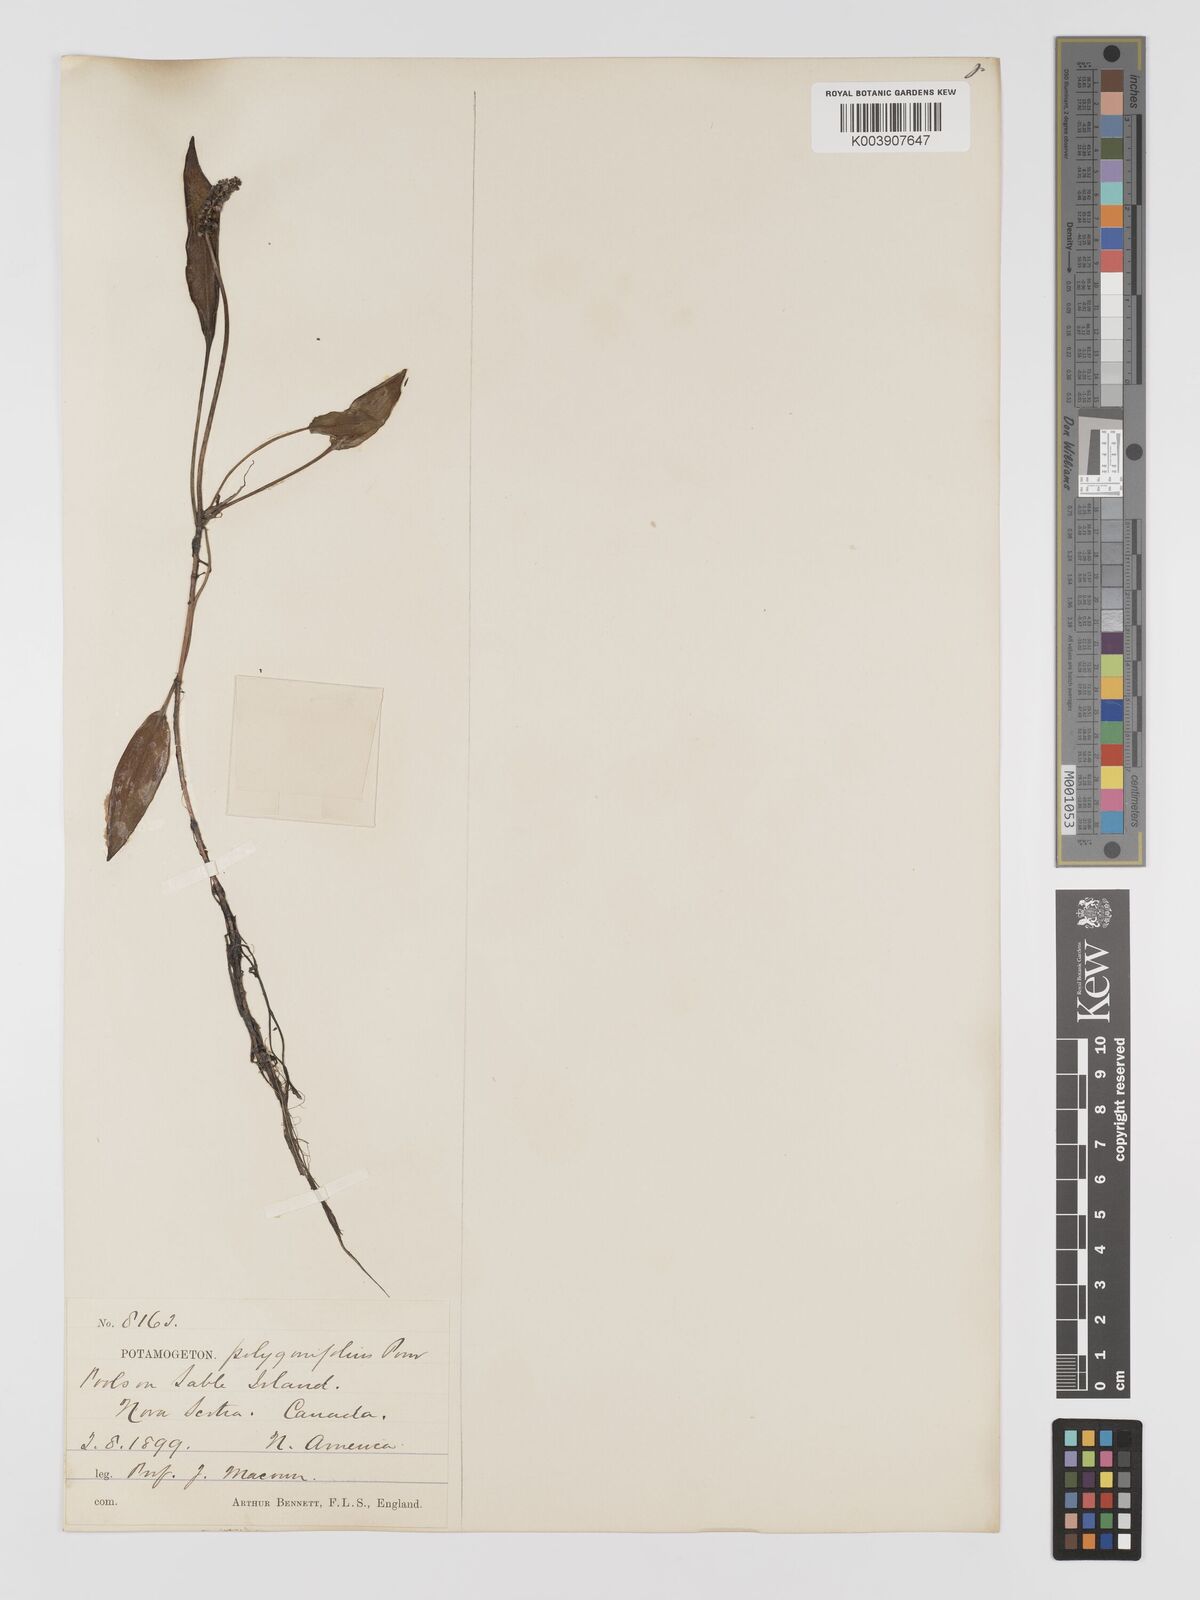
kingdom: Plantae
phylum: Tracheophyta
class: Liliopsida
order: Alismatales
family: Potamogetonaceae
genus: Potamogeton
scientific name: Potamogeton polygonifolius
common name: Bog pondweed
